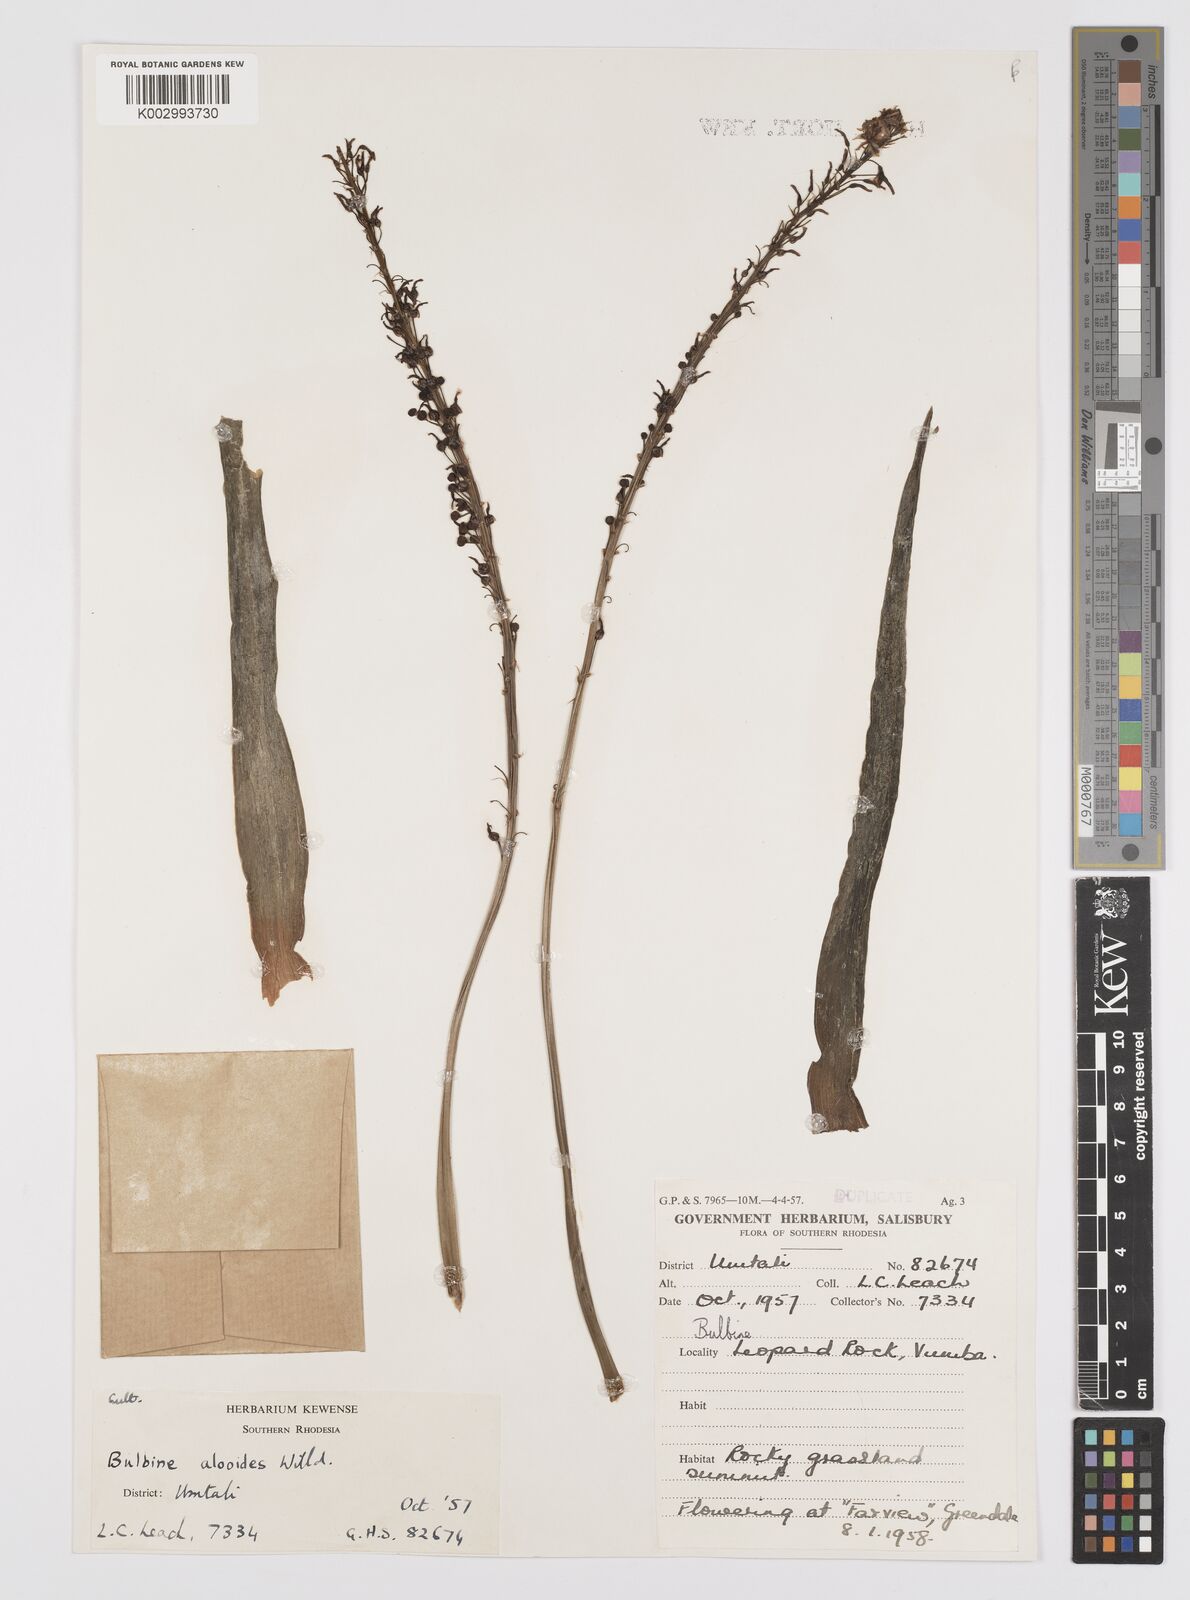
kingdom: Plantae
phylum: Tracheophyta
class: Liliopsida
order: Asparagales
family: Asphodelaceae
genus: Bulbine
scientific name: Bulbine alooides
